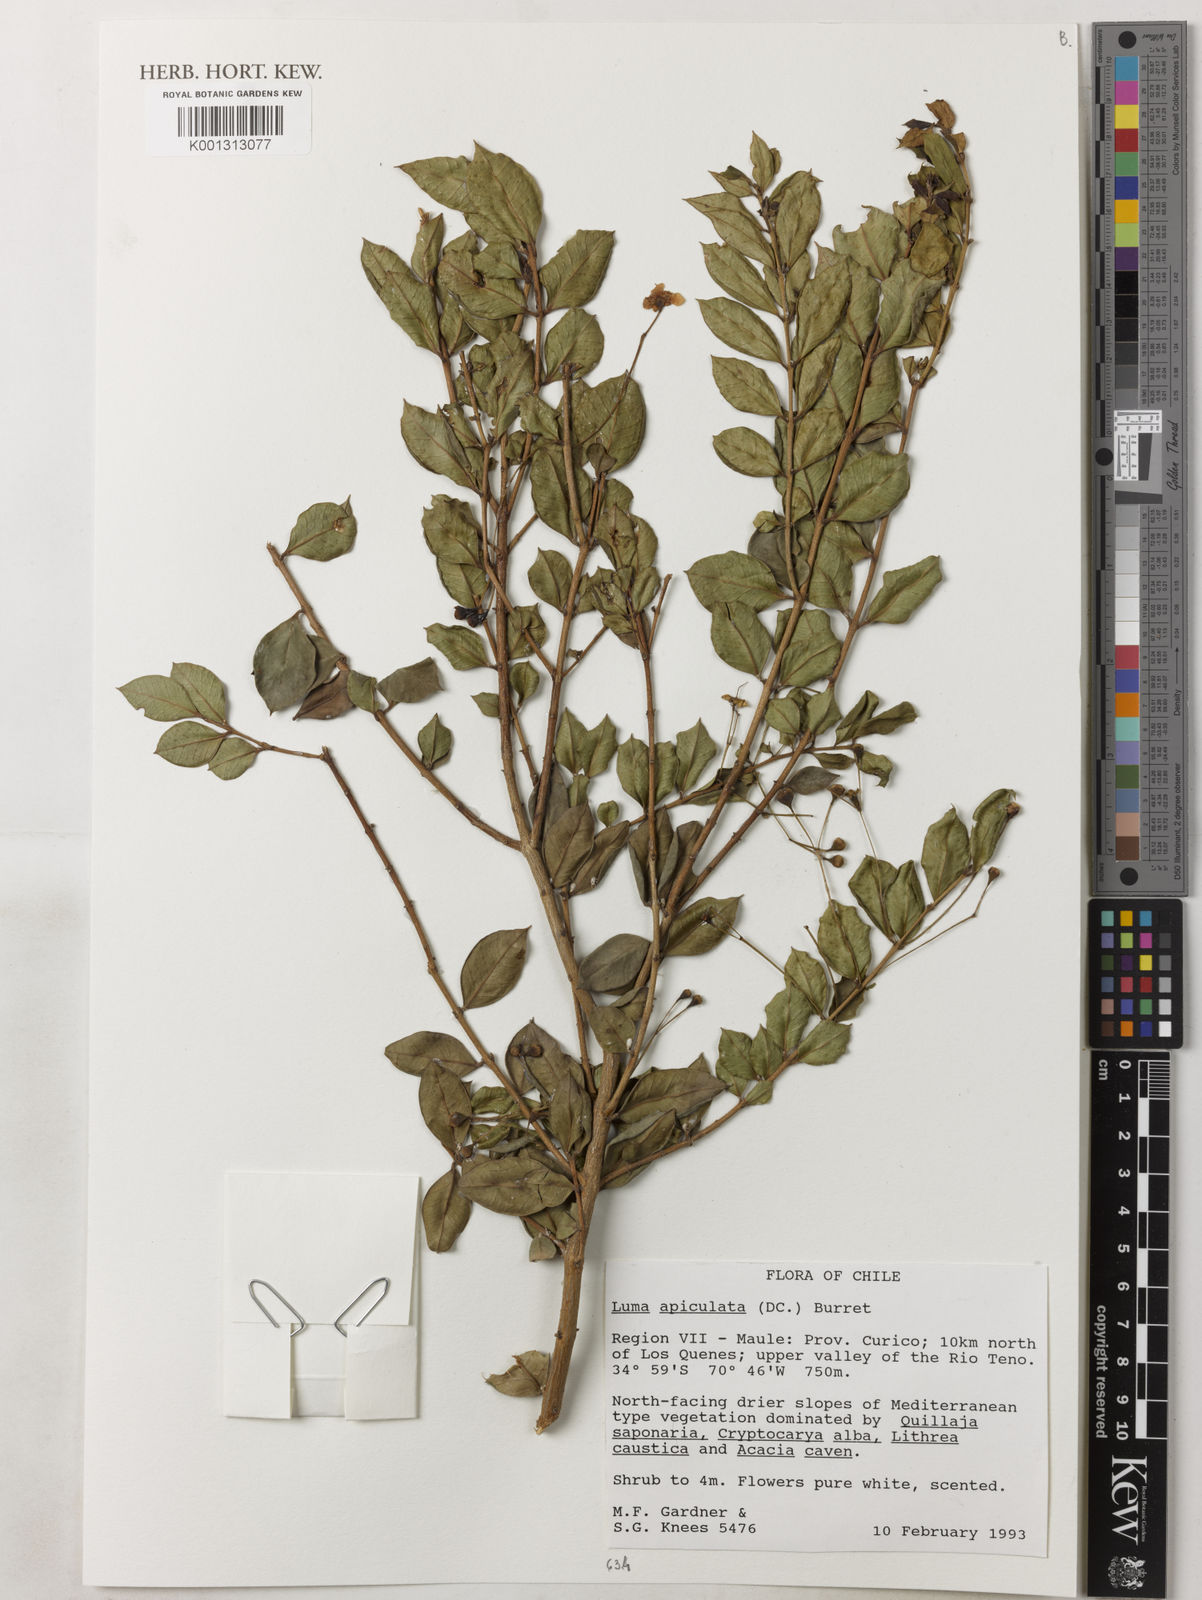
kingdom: Plantae
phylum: Tracheophyta
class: Magnoliopsida
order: Myrtales
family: Myrtaceae
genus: Luma
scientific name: Luma apiculata
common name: Chilean myrtle
